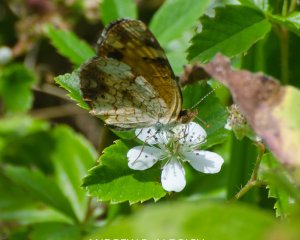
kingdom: Animalia
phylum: Arthropoda
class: Insecta
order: Lepidoptera
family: Nymphalidae
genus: Phyciodes
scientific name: Phyciodes
